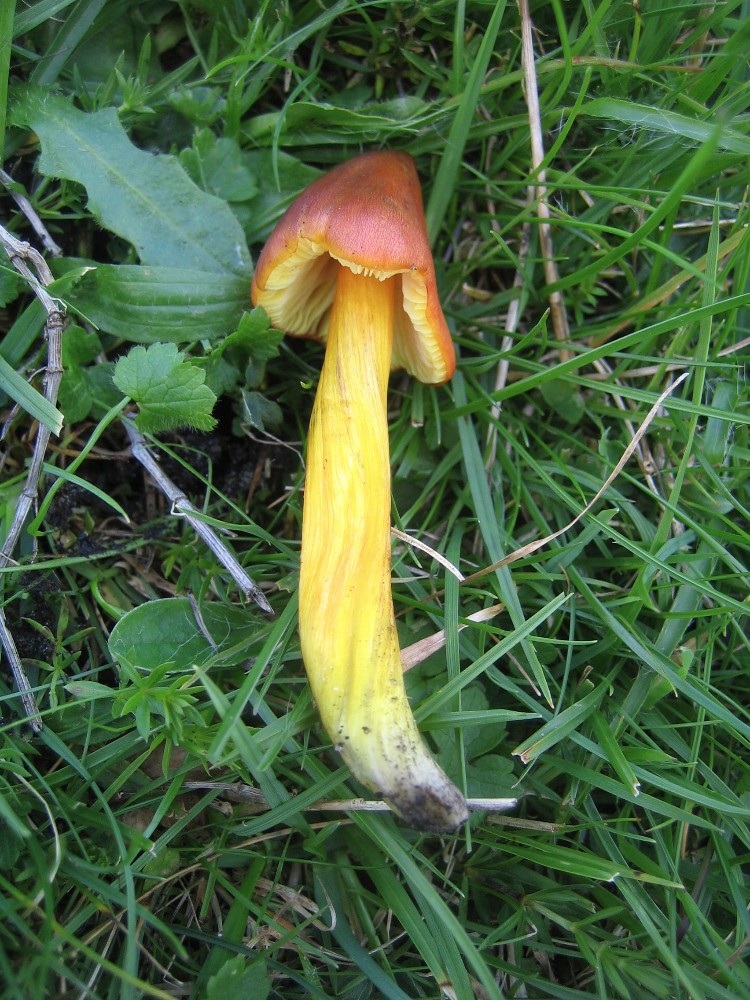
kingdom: Fungi
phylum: Basidiomycota
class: Agaricomycetes
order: Agaricales
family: Hygrophoraceae
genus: Hygrocybe
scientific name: Hygrocybe conica
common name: kegle-vokshat
